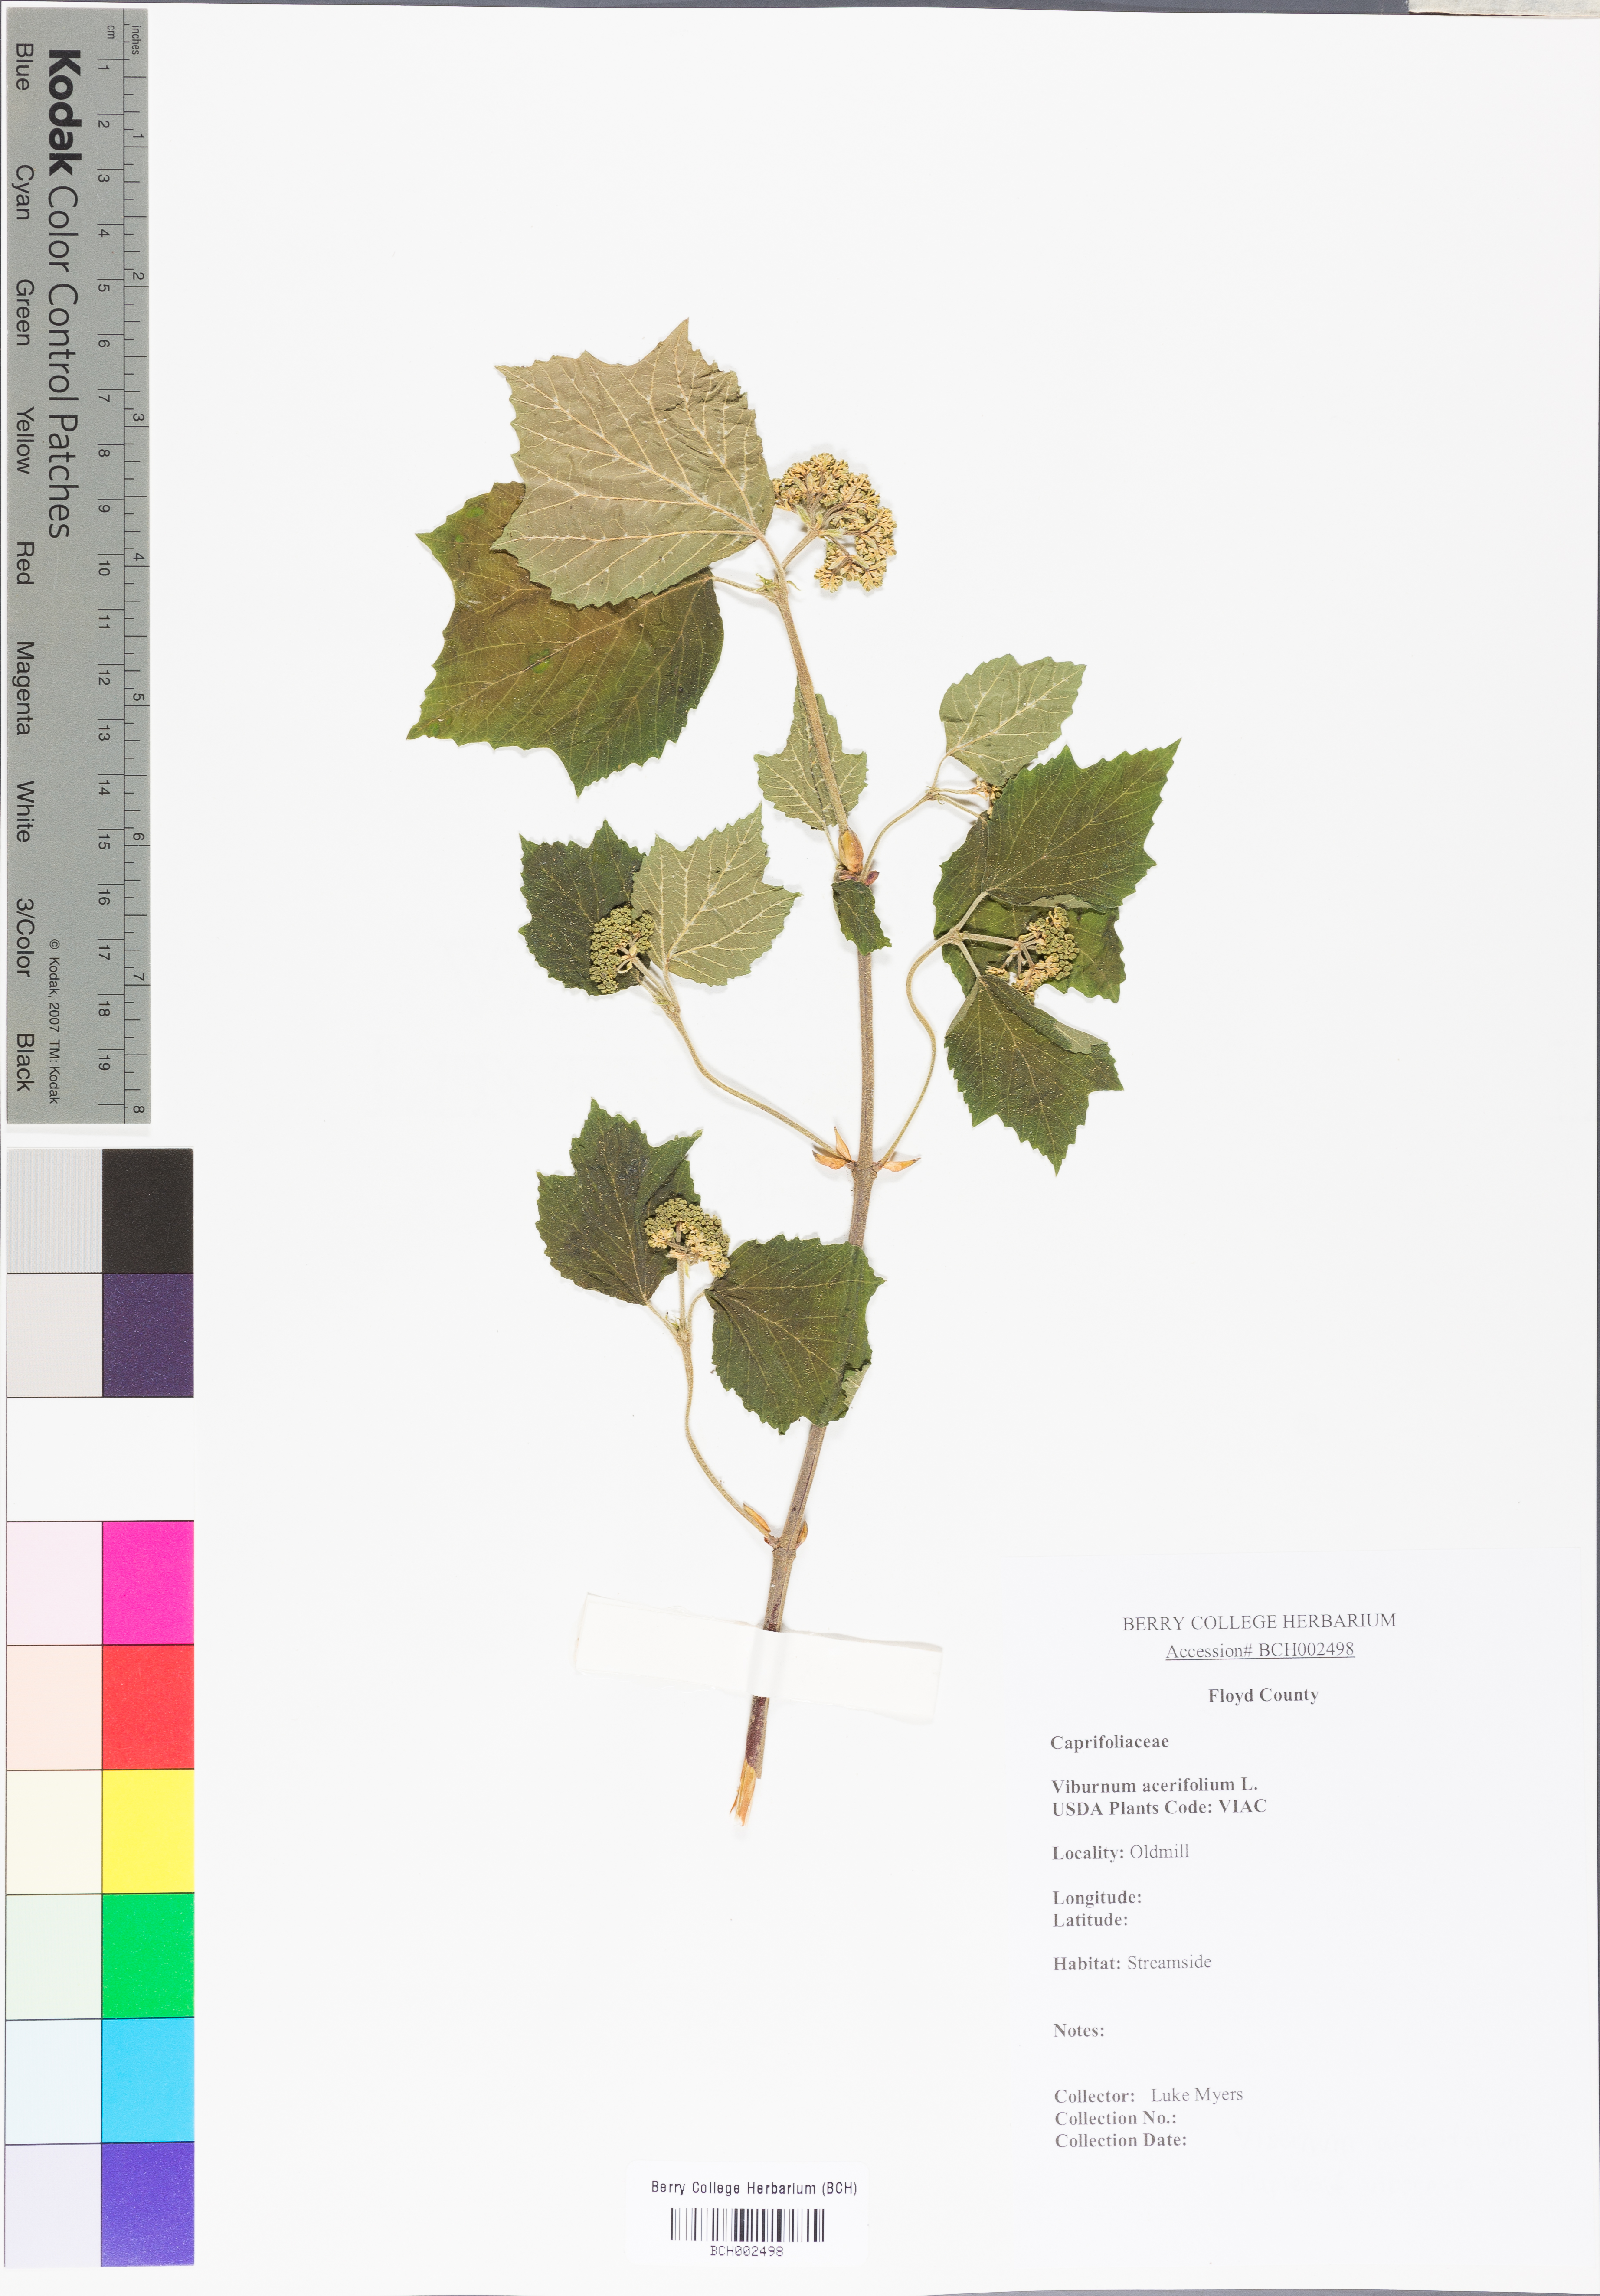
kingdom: Plantae
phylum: Tracheophyta
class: Magnoliopsida
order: Dipsacales
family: Viburnaceae
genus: Viburnum
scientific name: Viburnum acerifolium
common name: Dockmackie
